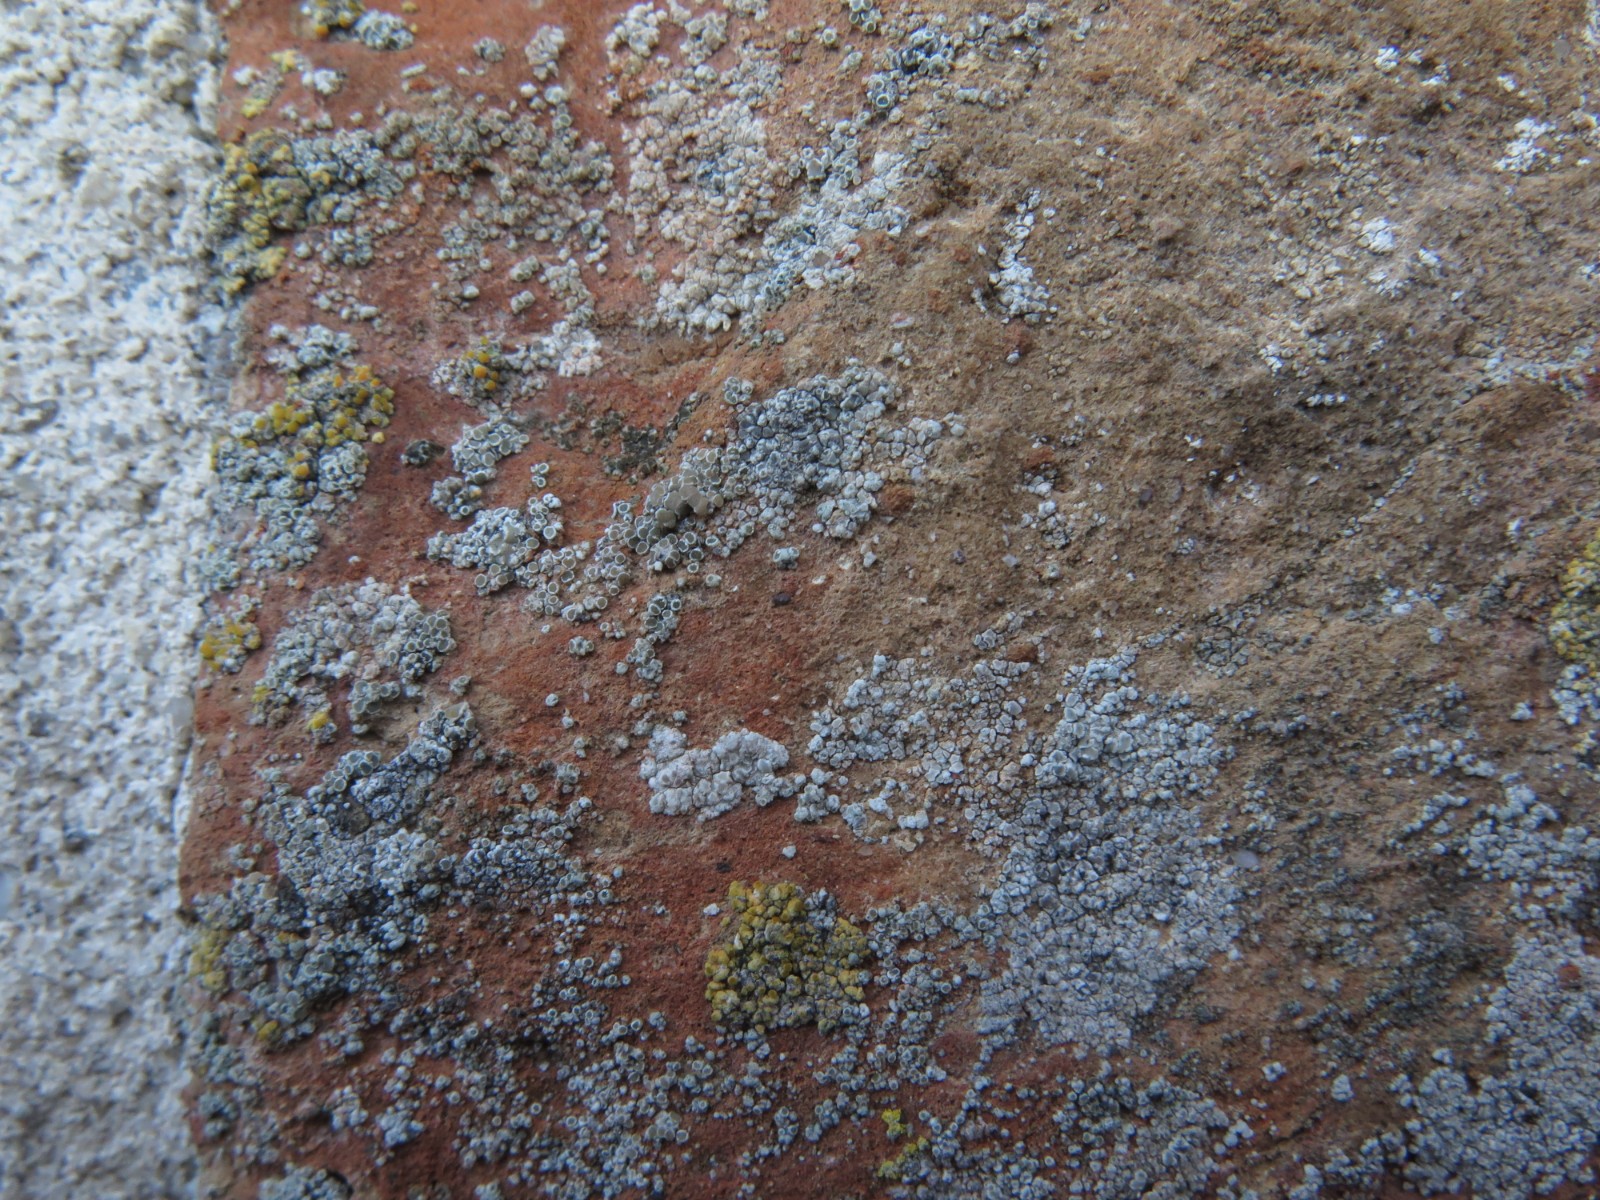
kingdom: Fungi
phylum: Ascomycota
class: Lecanoromycetes
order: Lecanorales
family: Lecanoraceae
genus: Polyozosia
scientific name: Polyozosia albescens
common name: cement-kantskivelav
